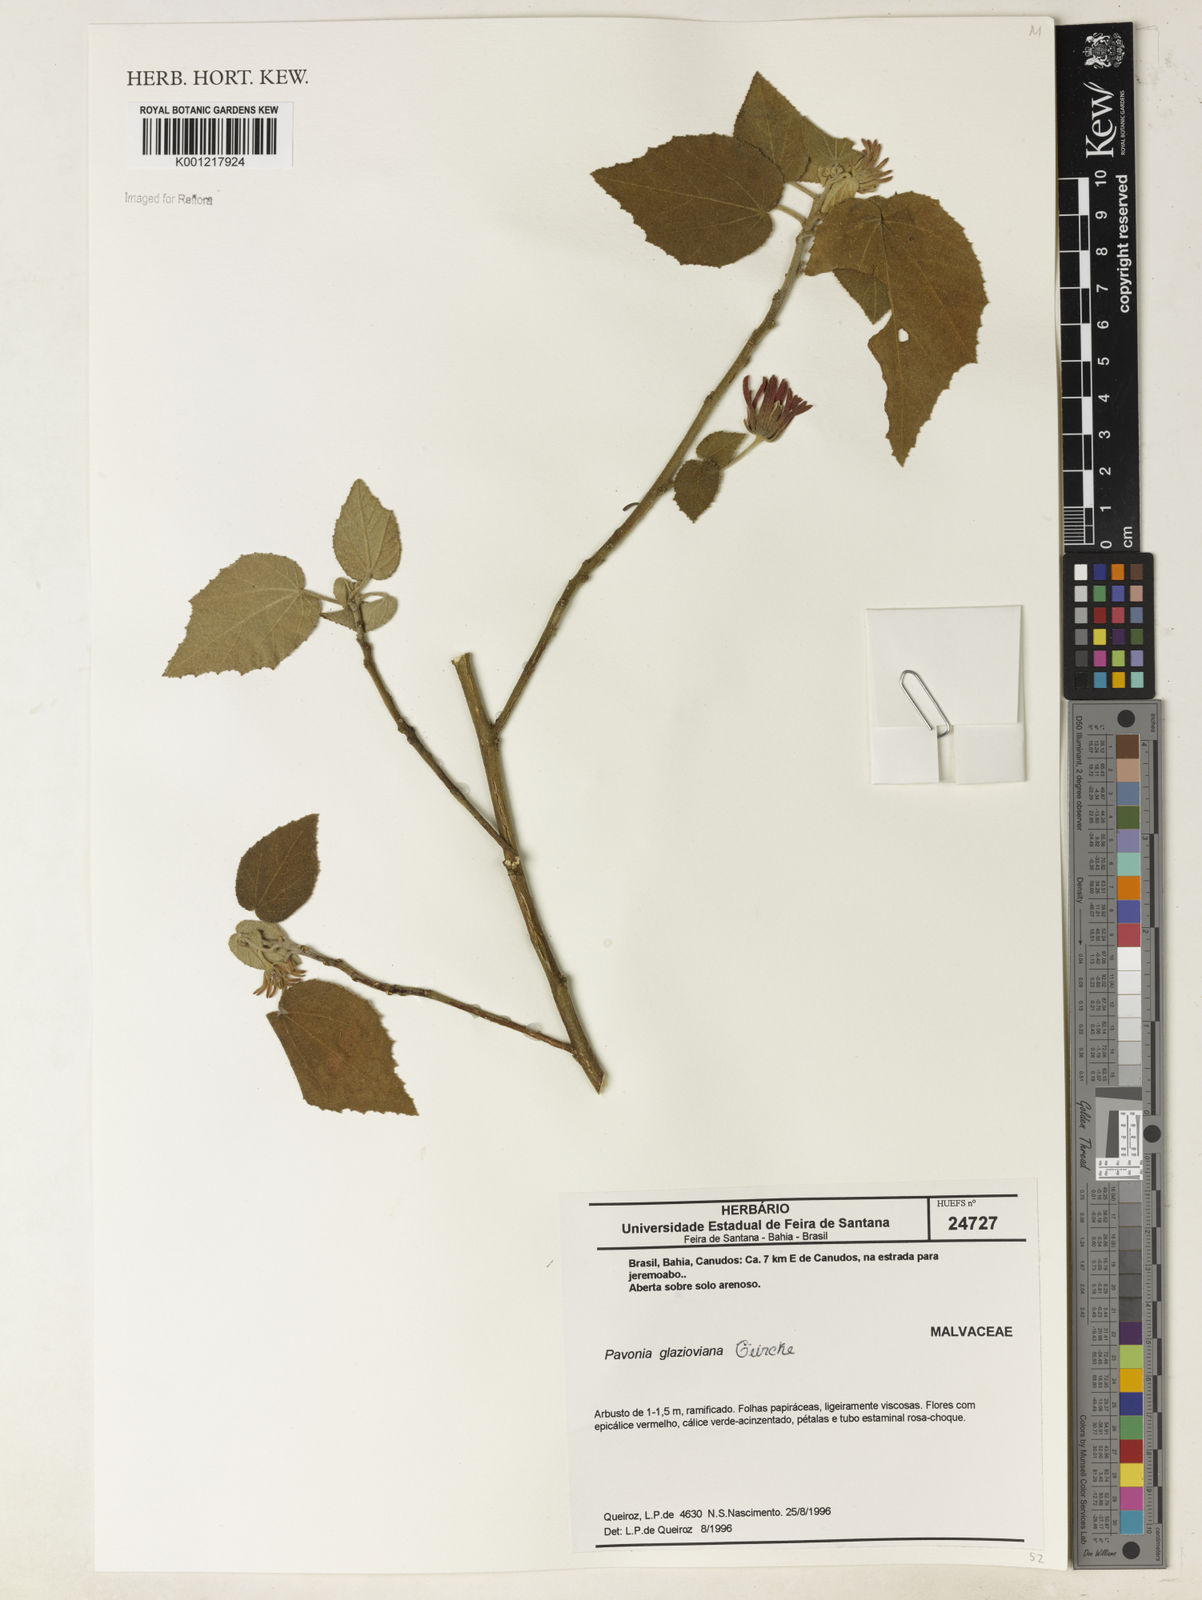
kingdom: Plantae
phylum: Tracheophyta
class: Magnoliopsida
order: Malvales
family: Malvaceae
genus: Pavonia
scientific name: Pavonia
